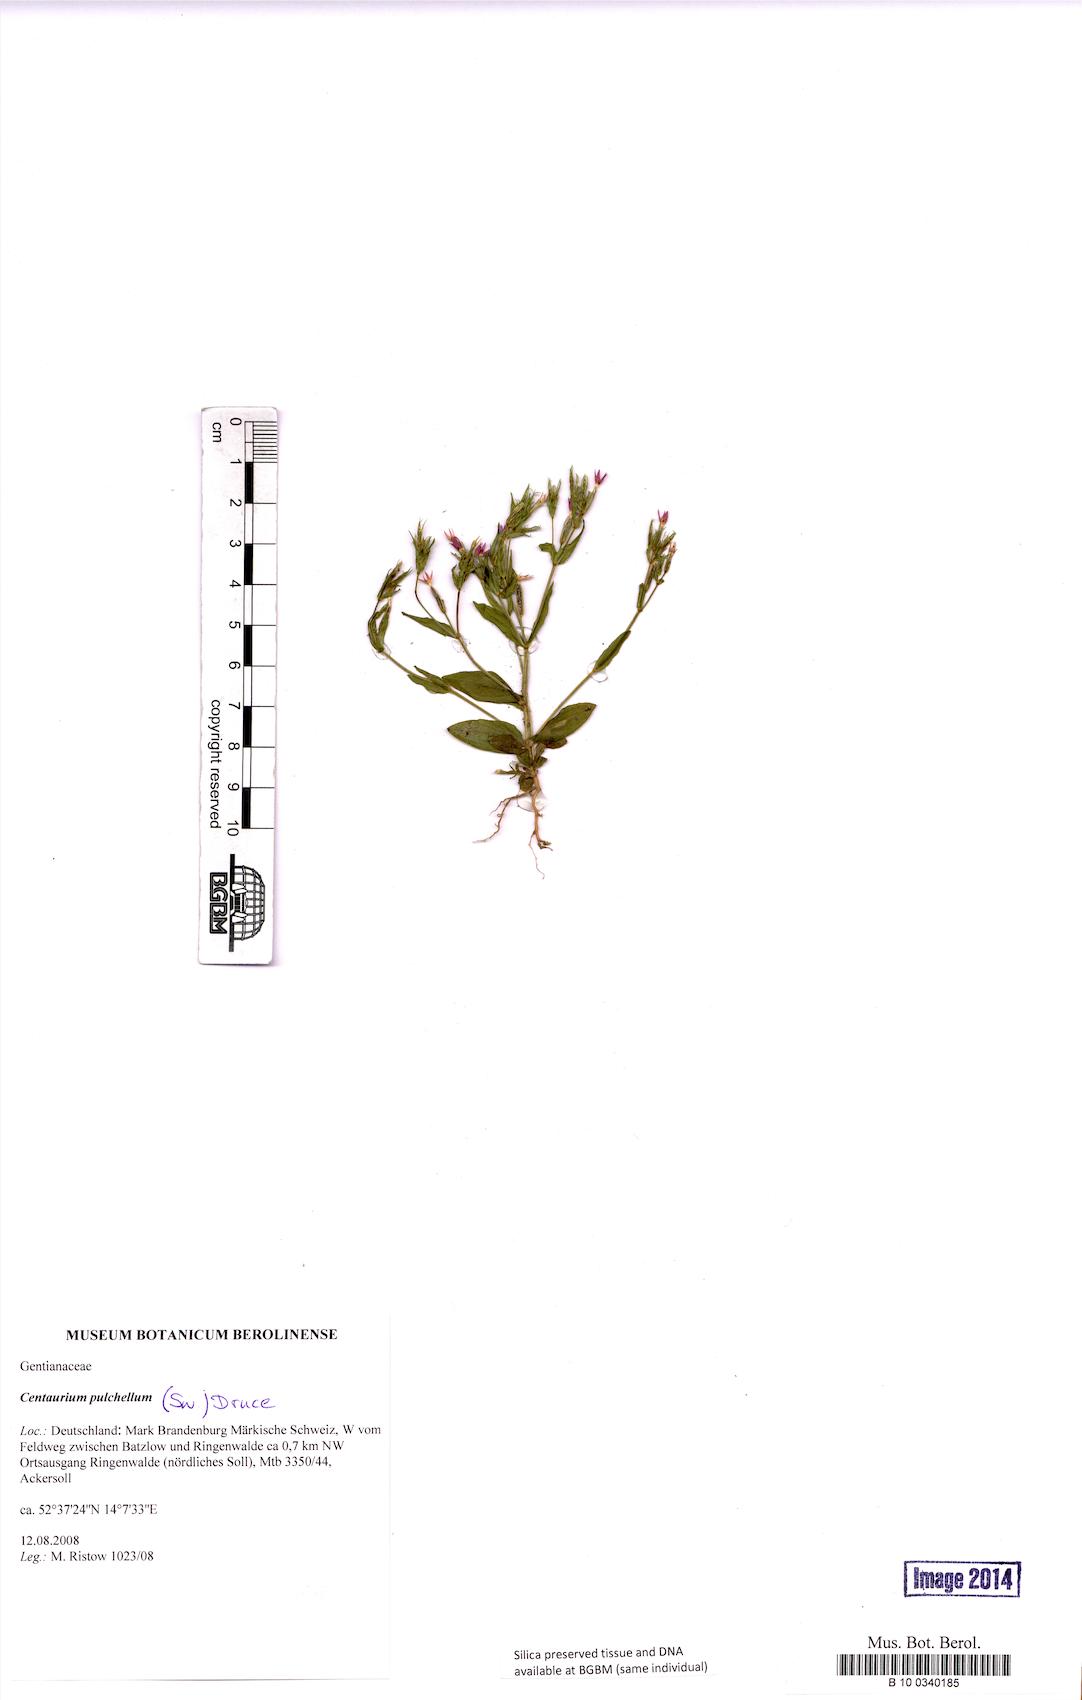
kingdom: Plantae
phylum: Tracheophyta
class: Magnoliopsida
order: Gentianales
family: Gentianaceae
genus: Centaurium
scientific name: Centaurium pulchellum
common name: Lesser centaury
